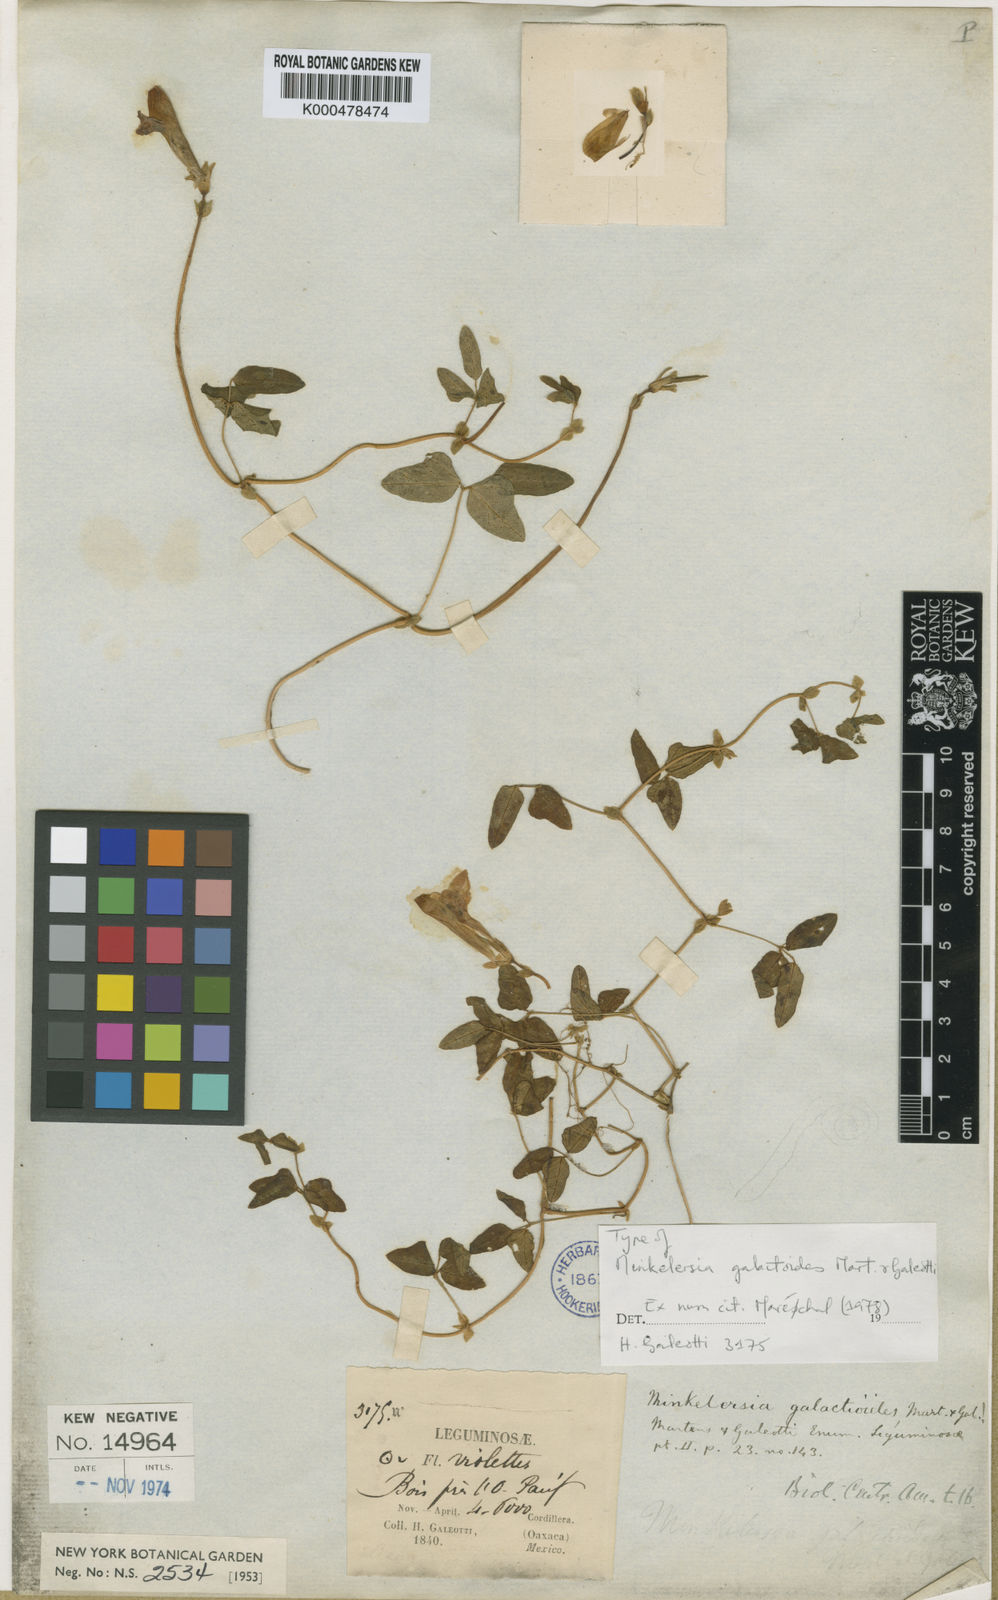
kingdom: Plantae
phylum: Tracheophyta
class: Magnoliopsida
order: Fabales
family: Fabaceae
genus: Phaseolus
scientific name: Phaseolus
